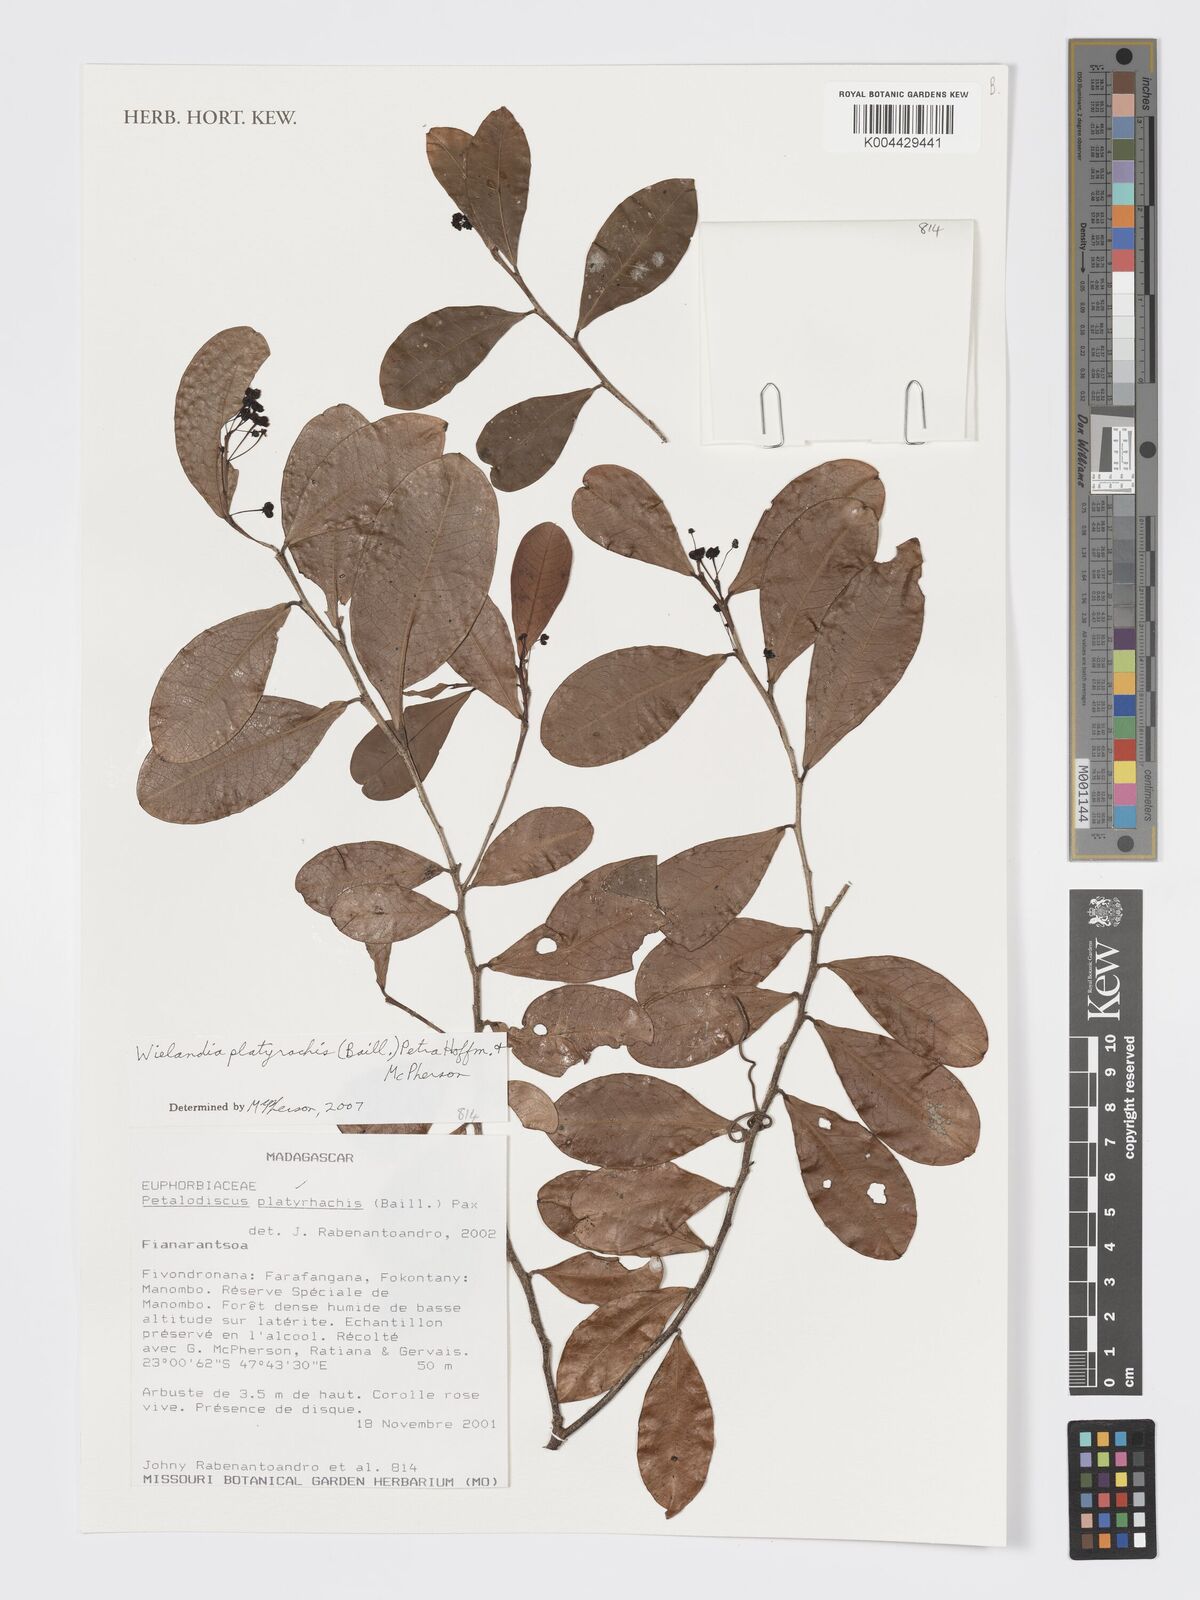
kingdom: Plantae
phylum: Tracheophyta
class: Magnoliopsida
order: Malpighiales
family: Phyllanthaceae
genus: Wielandia
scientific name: Wielandia platyrachis
